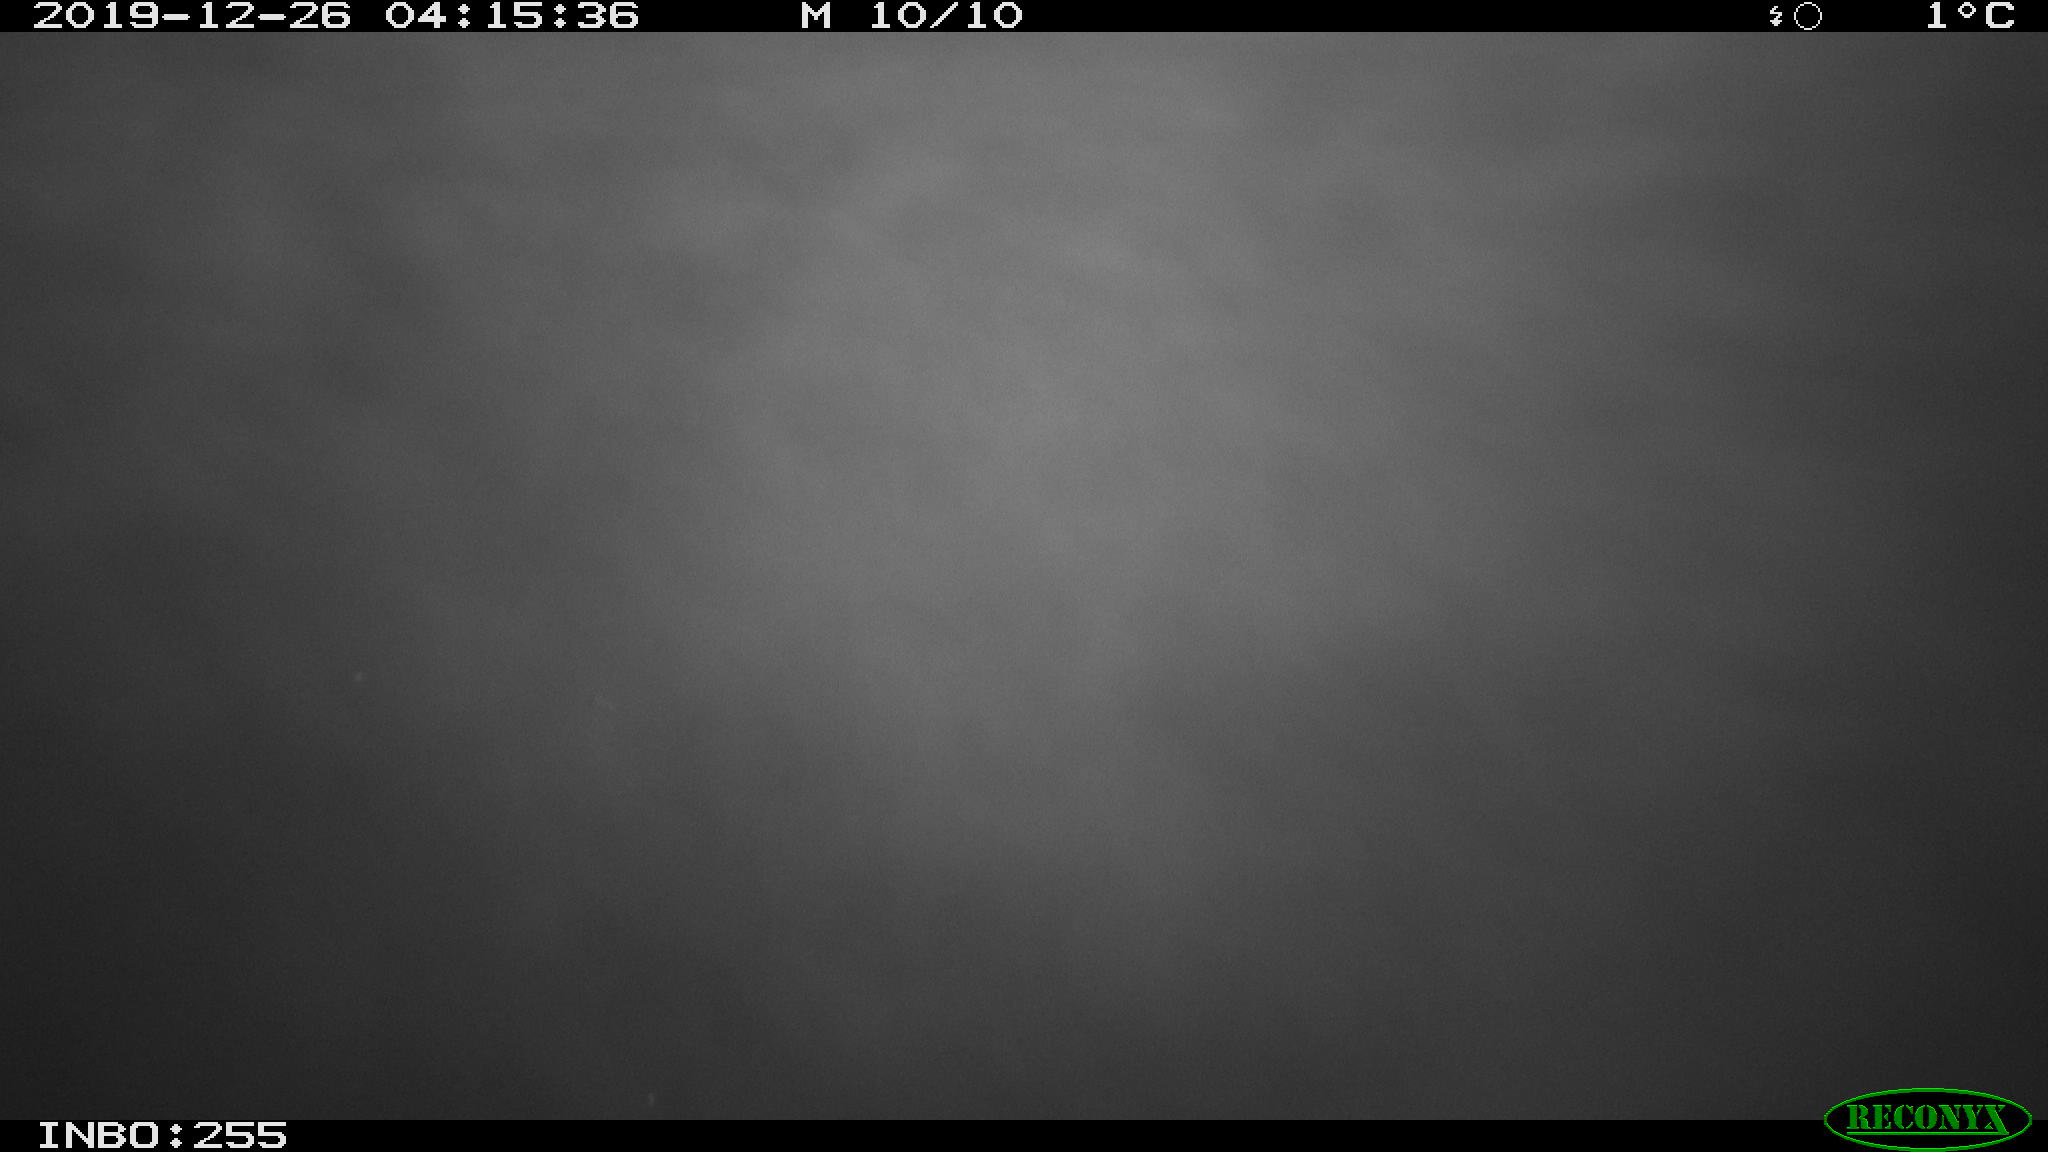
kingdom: Animalia
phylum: Chordata
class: Aves
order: Anseriformes
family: Anatidae
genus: Anas
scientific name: Anas platyrhynchos
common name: Mallard
